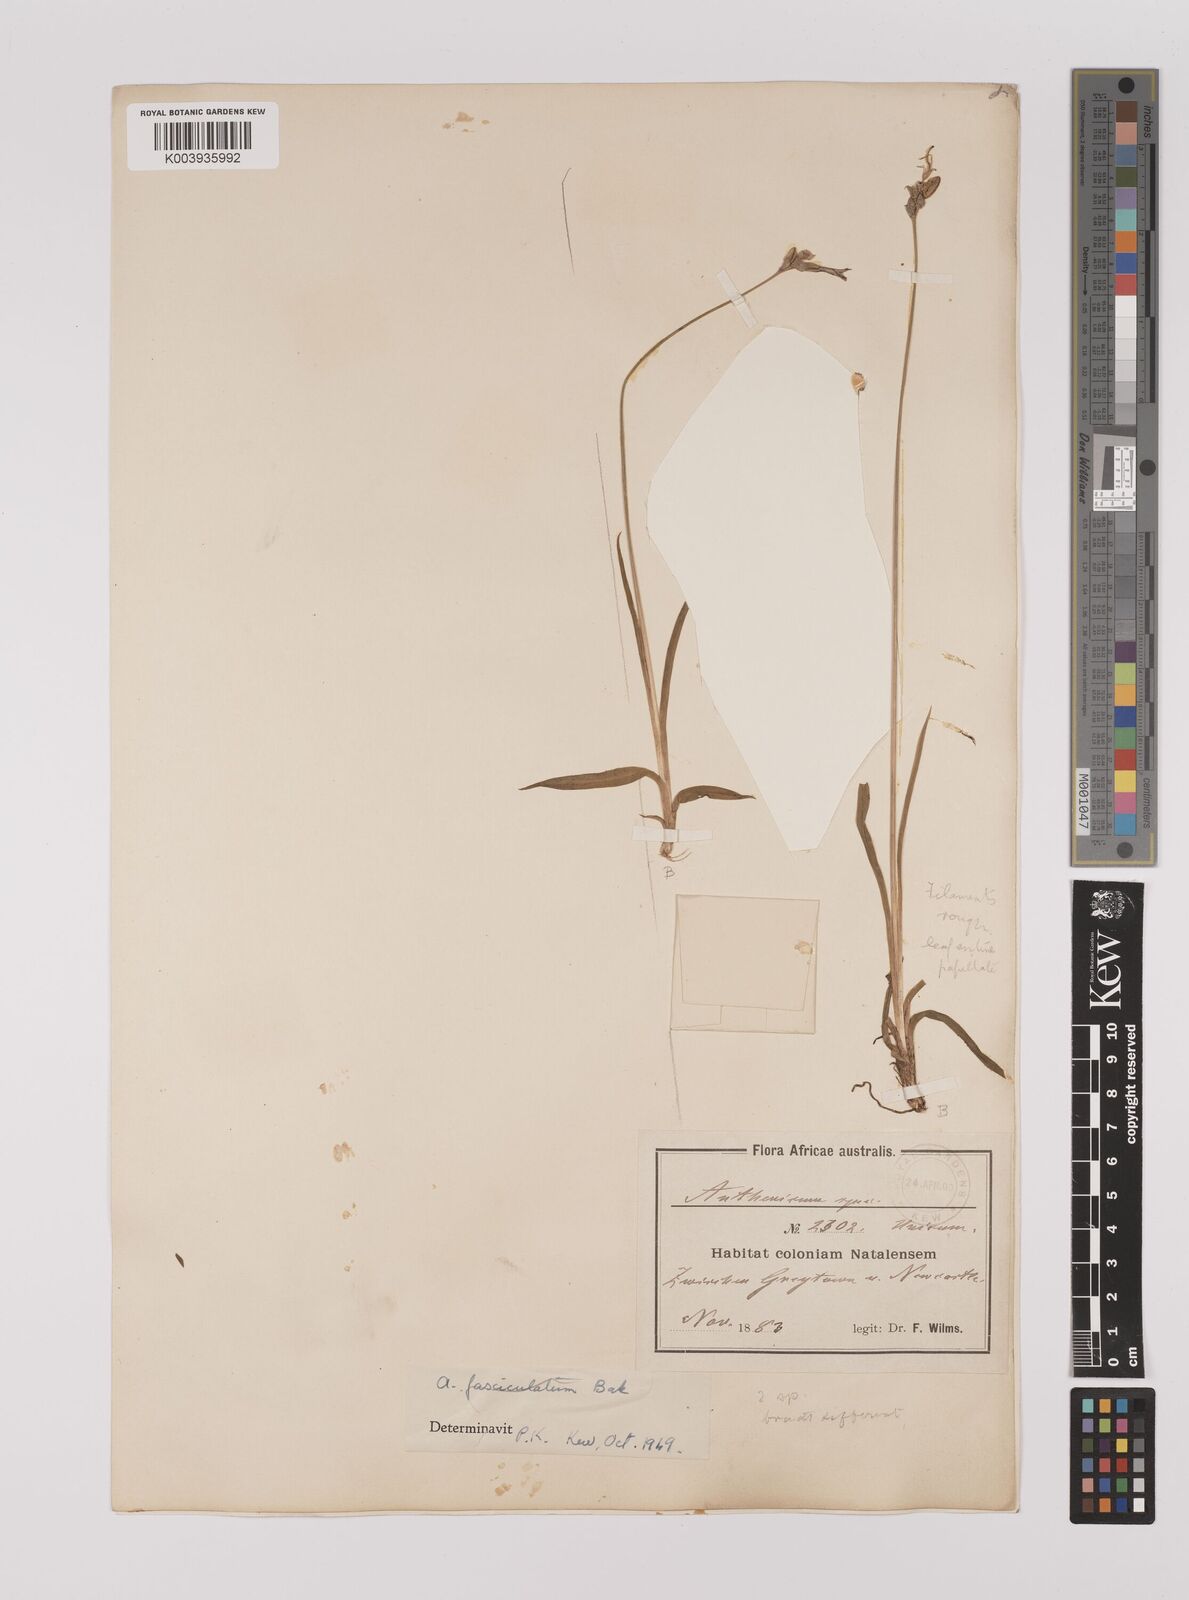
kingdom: Plantae
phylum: Tracheophyta
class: Liliopsida
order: Asparagales
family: Asparagaceae
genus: Chlorophytum
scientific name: Chlorophytum cooperi
